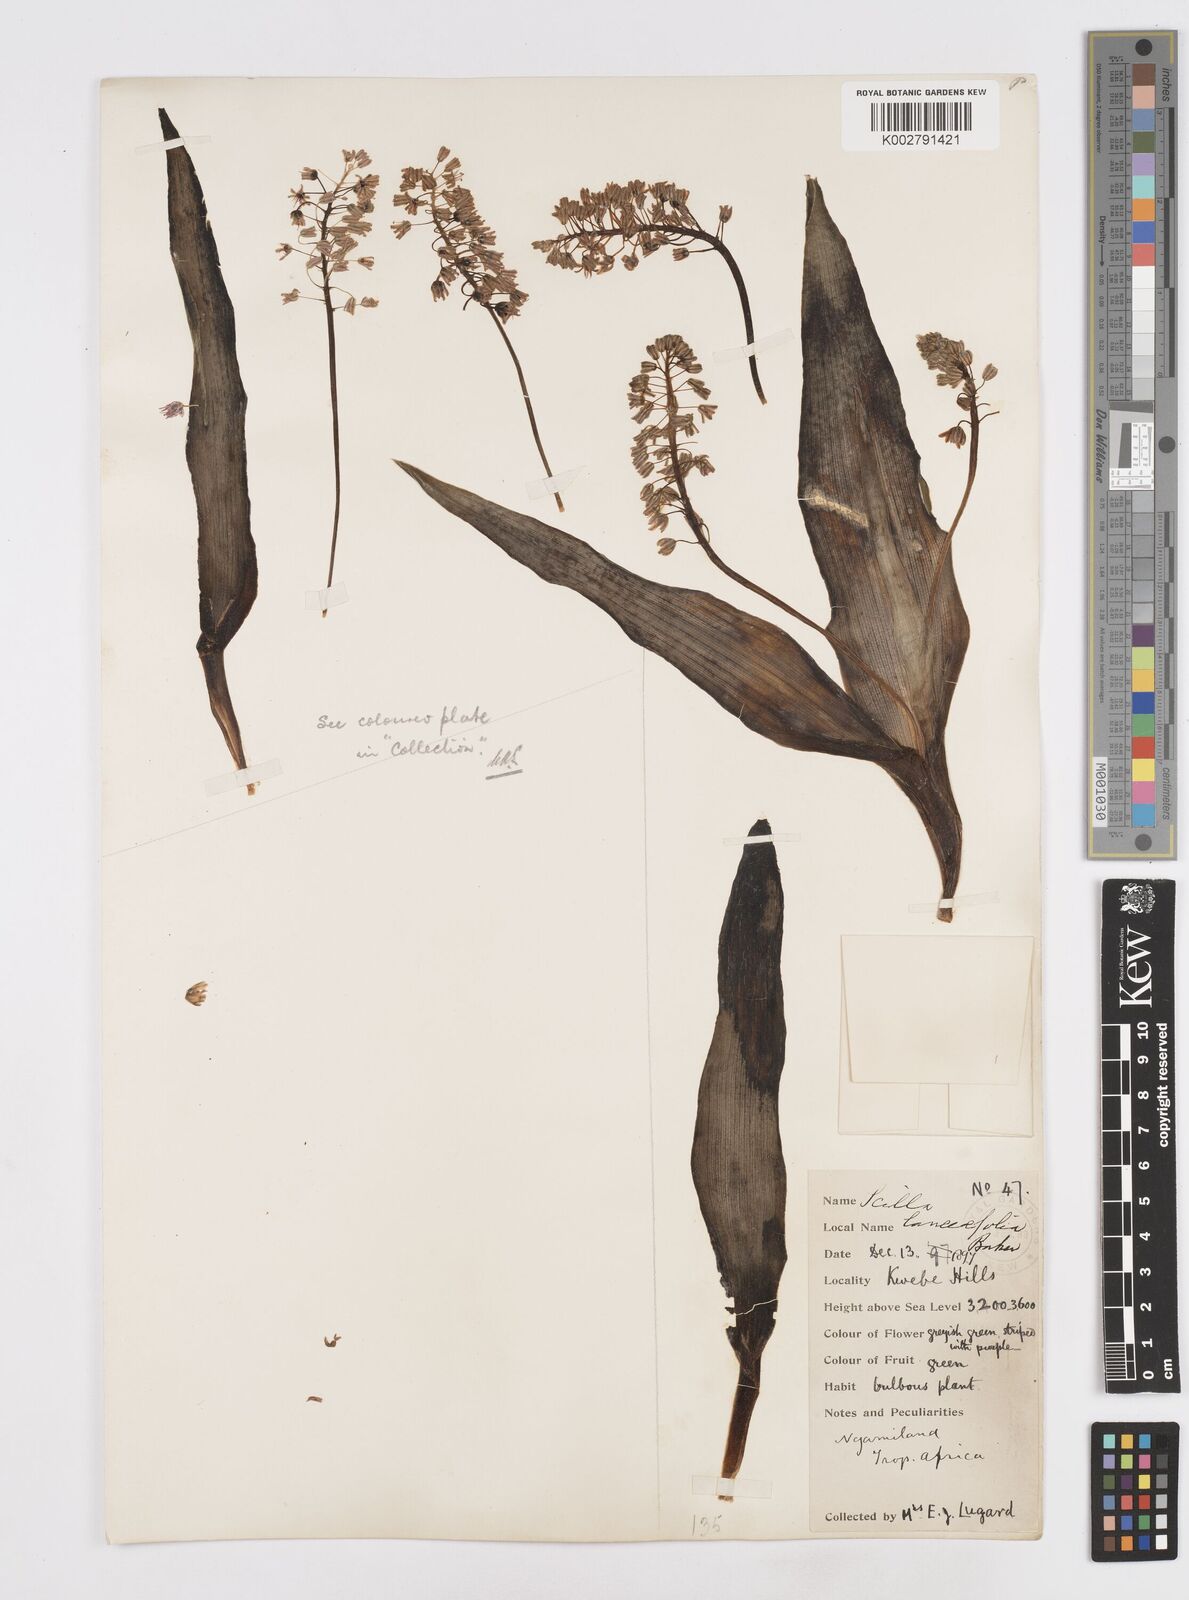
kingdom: Plantae
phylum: Tracheophyta
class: Liliopsida
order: Asparagales
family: Asparagaceae
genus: Ledebouria
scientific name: Ledebouria revoluta
